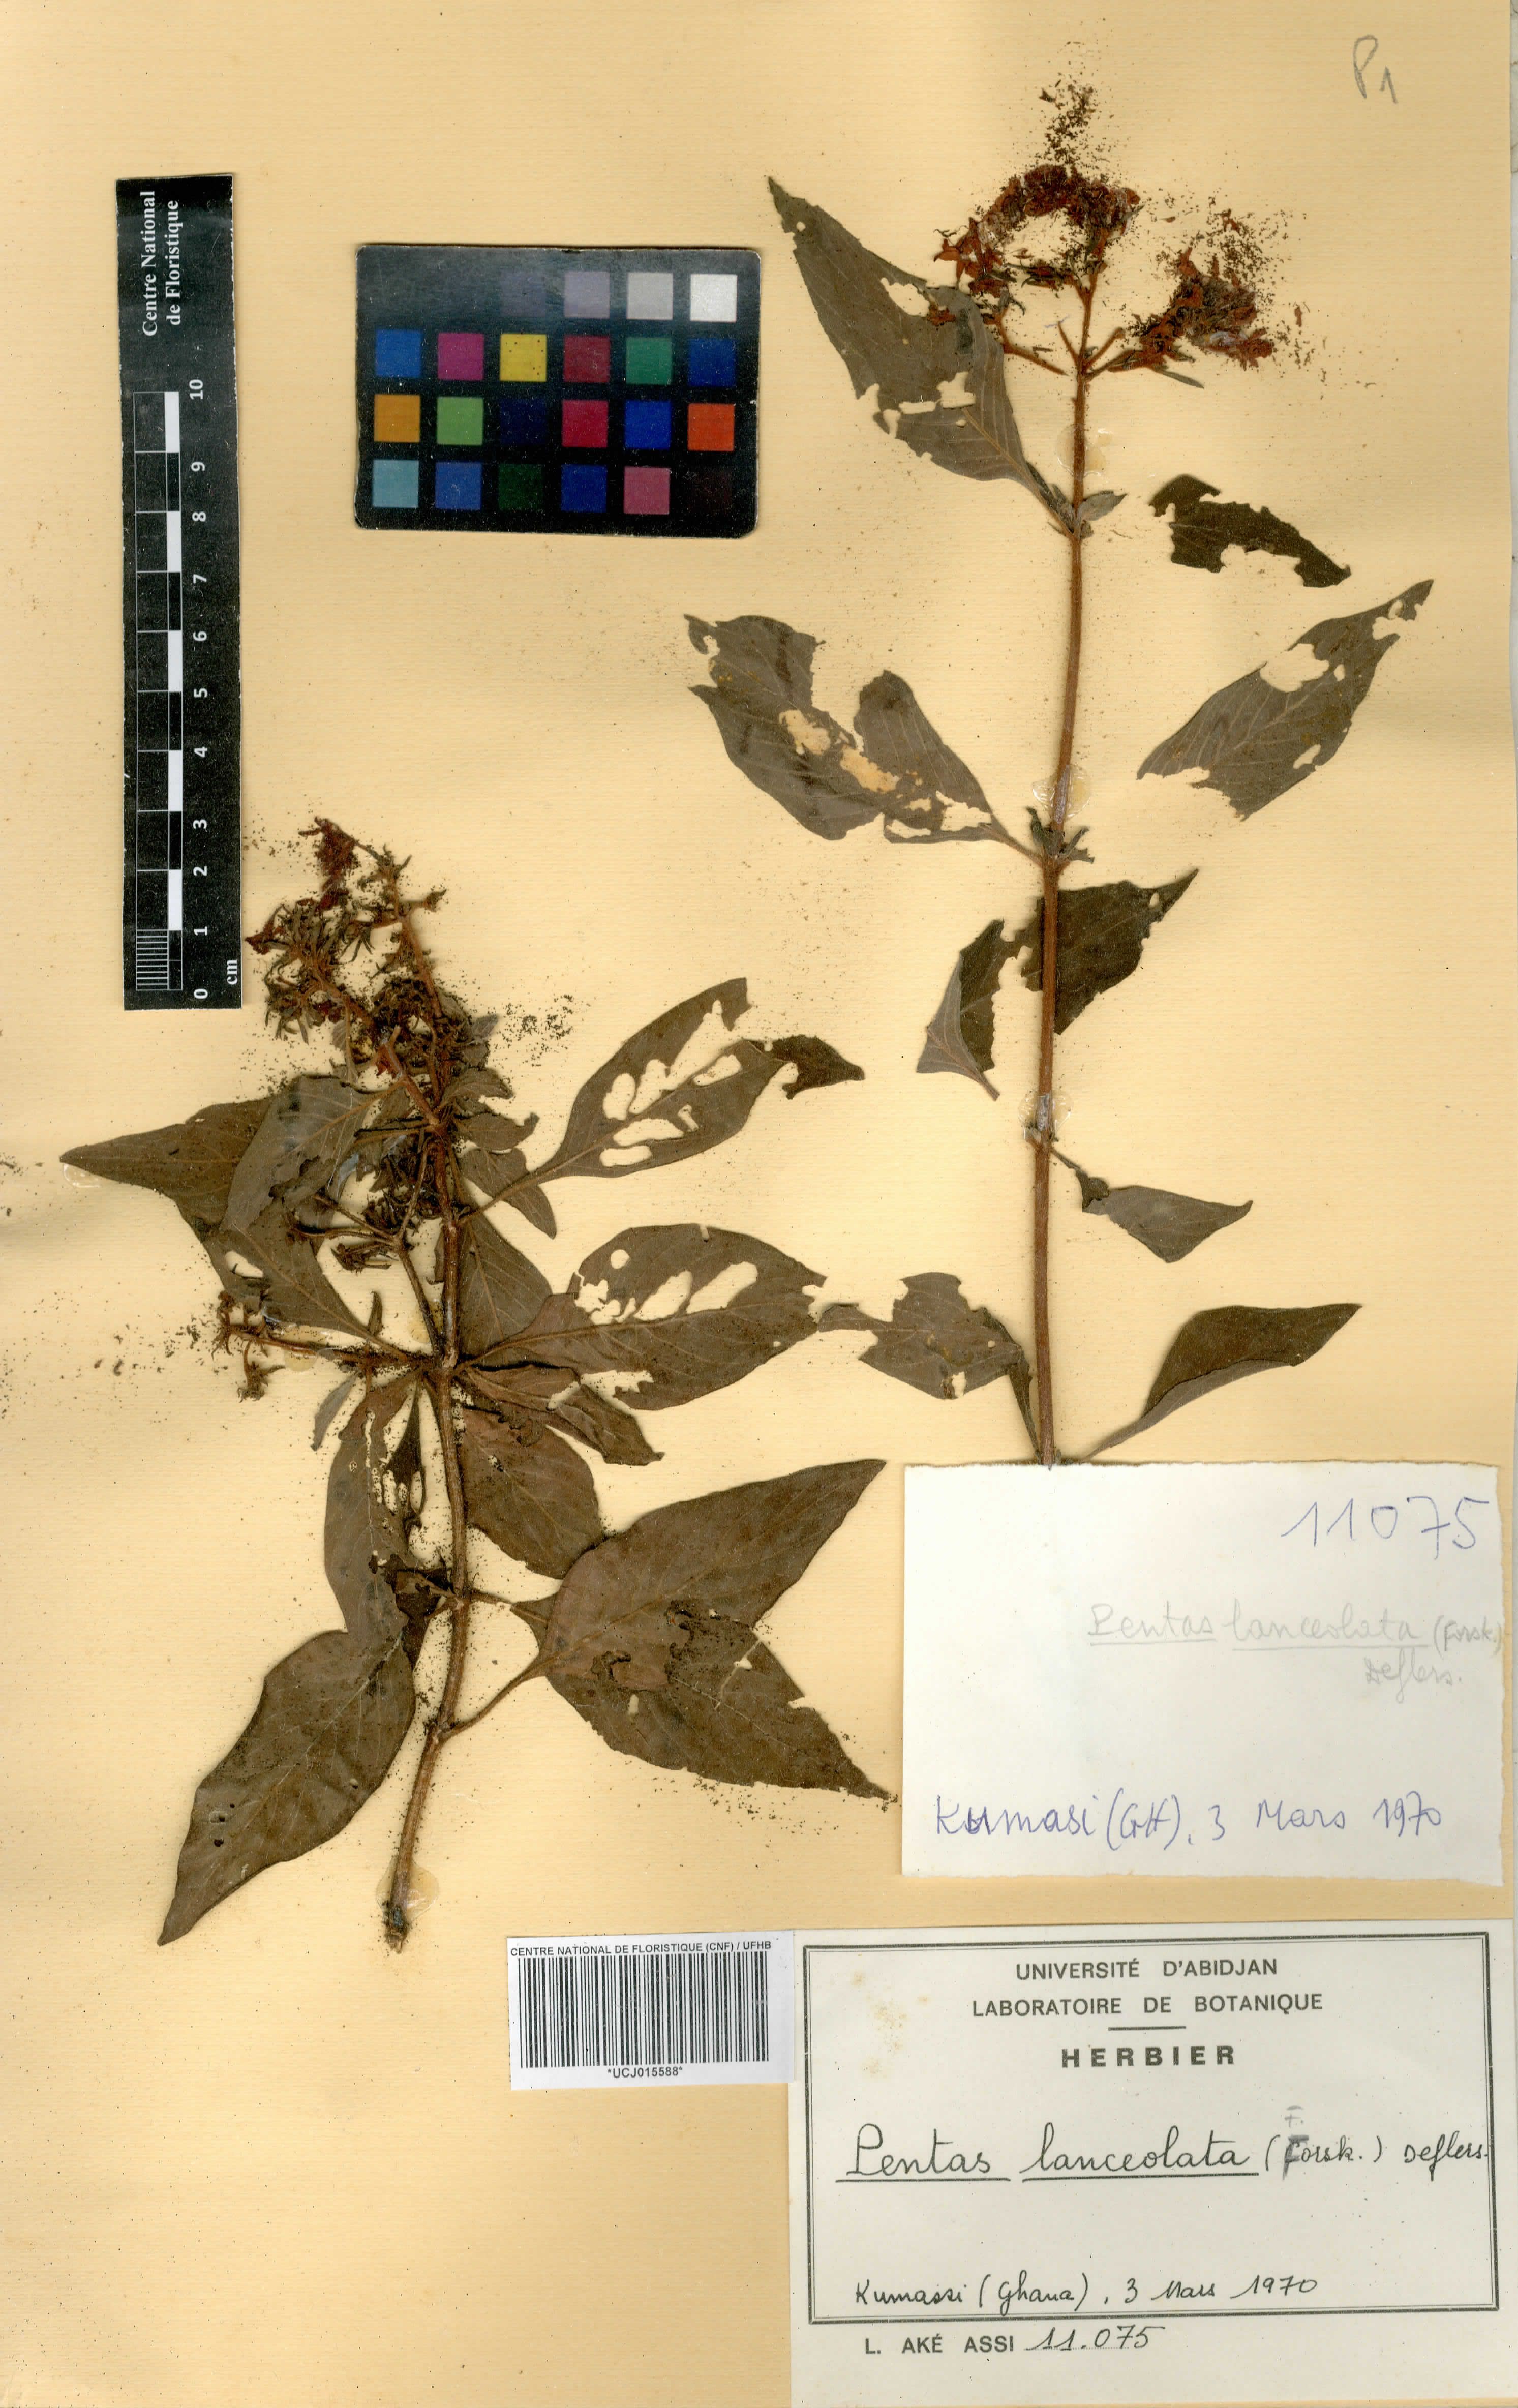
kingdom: Plantae
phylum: Tracheophyta
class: Magnoliopsida
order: Gentianales
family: Rubiaceae
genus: Pentas
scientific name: Pentas lanceolata
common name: Egyptian starcluster
